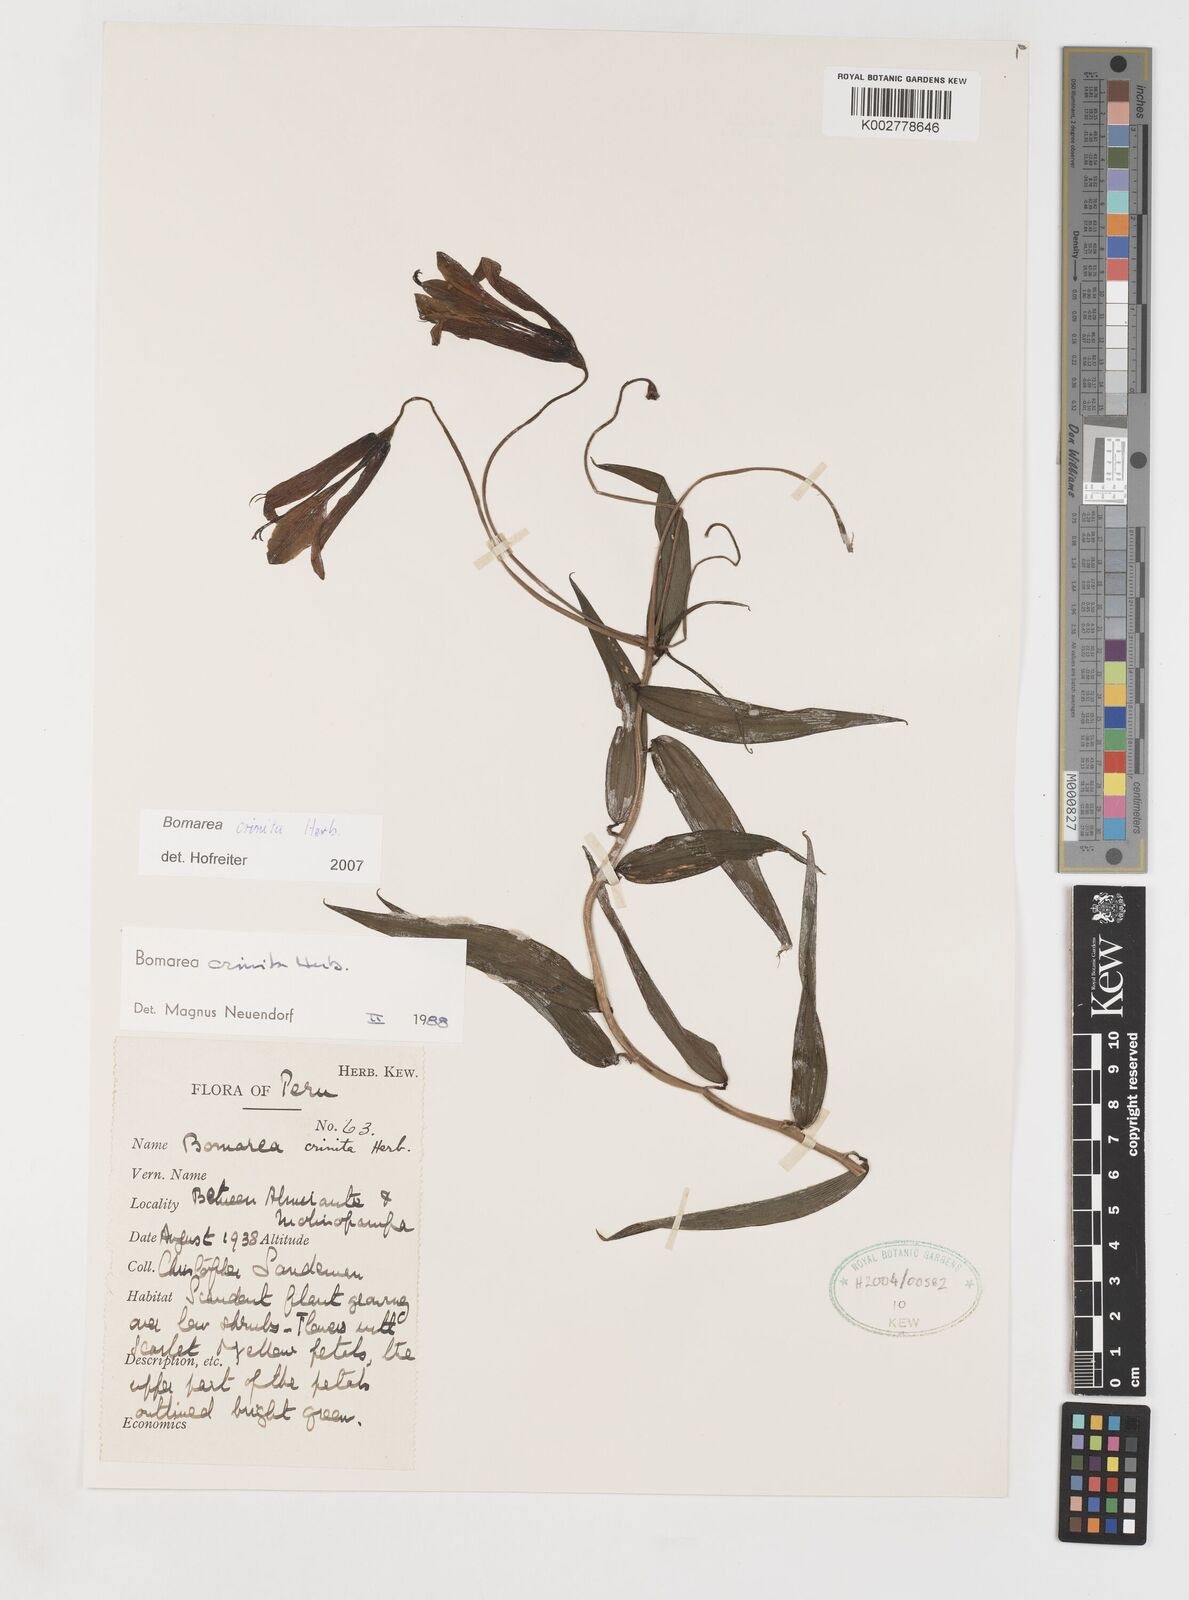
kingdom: Plantae
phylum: Tracheophyta
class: Liliopsida
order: Liliales
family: Alstroemeriaceae
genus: Bomarea
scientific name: Bomarea crinita
